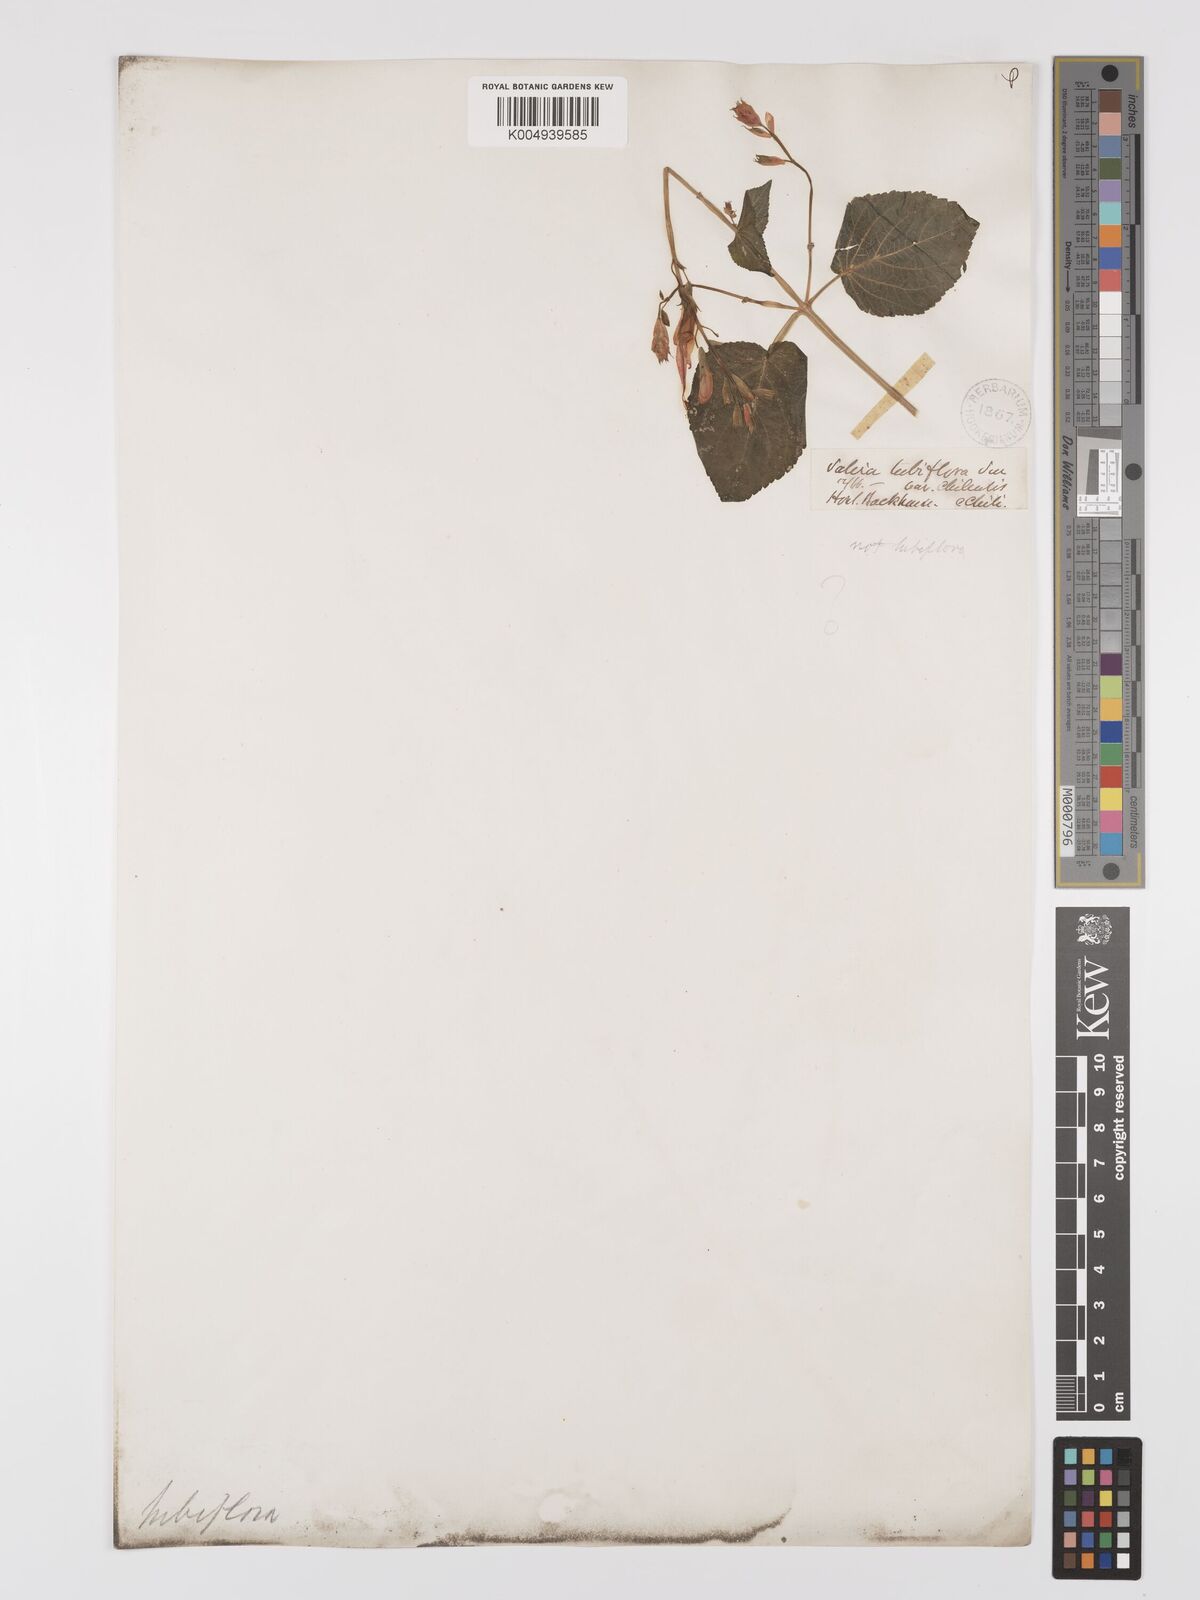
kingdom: Plantae
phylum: Tracheophyta
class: Magnoliopsida
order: Lamiales
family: Lamiaceae
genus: Salvia
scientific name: Salvia
